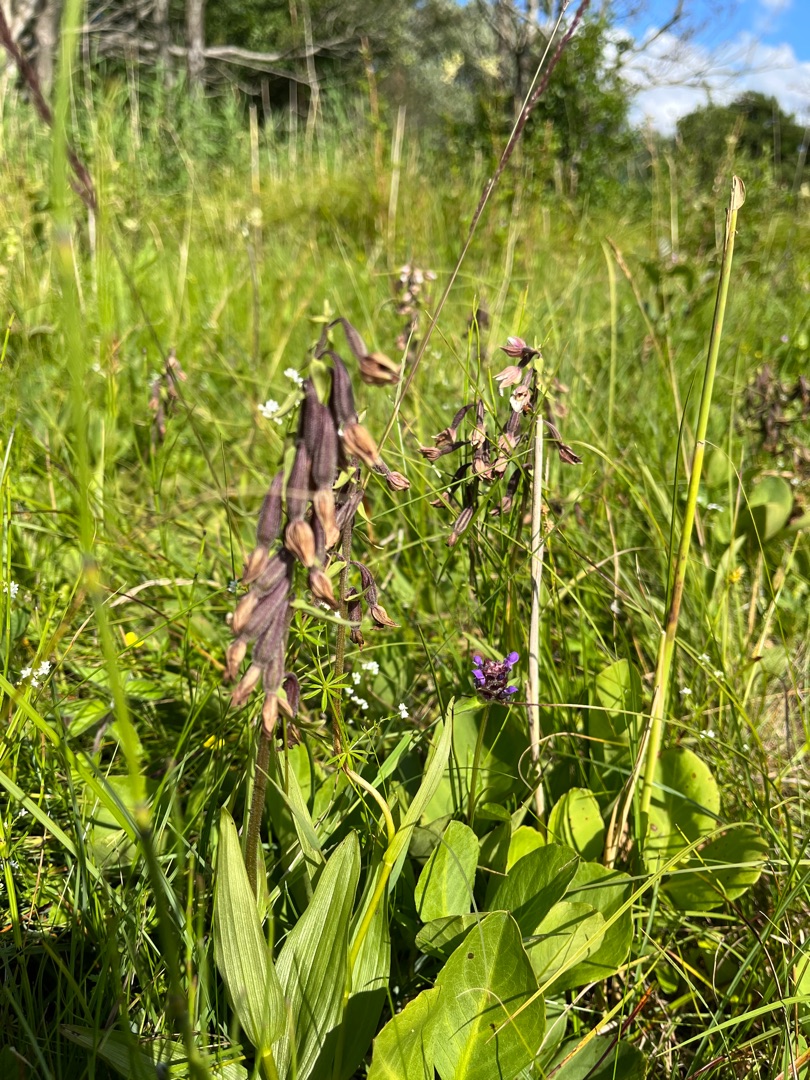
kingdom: Plantae
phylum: Tracheophyta
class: Liliopsida
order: Asparagales
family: Orchidaceae
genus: Epipactis
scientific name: Epipactis palustris
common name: Sump-hullæbe
